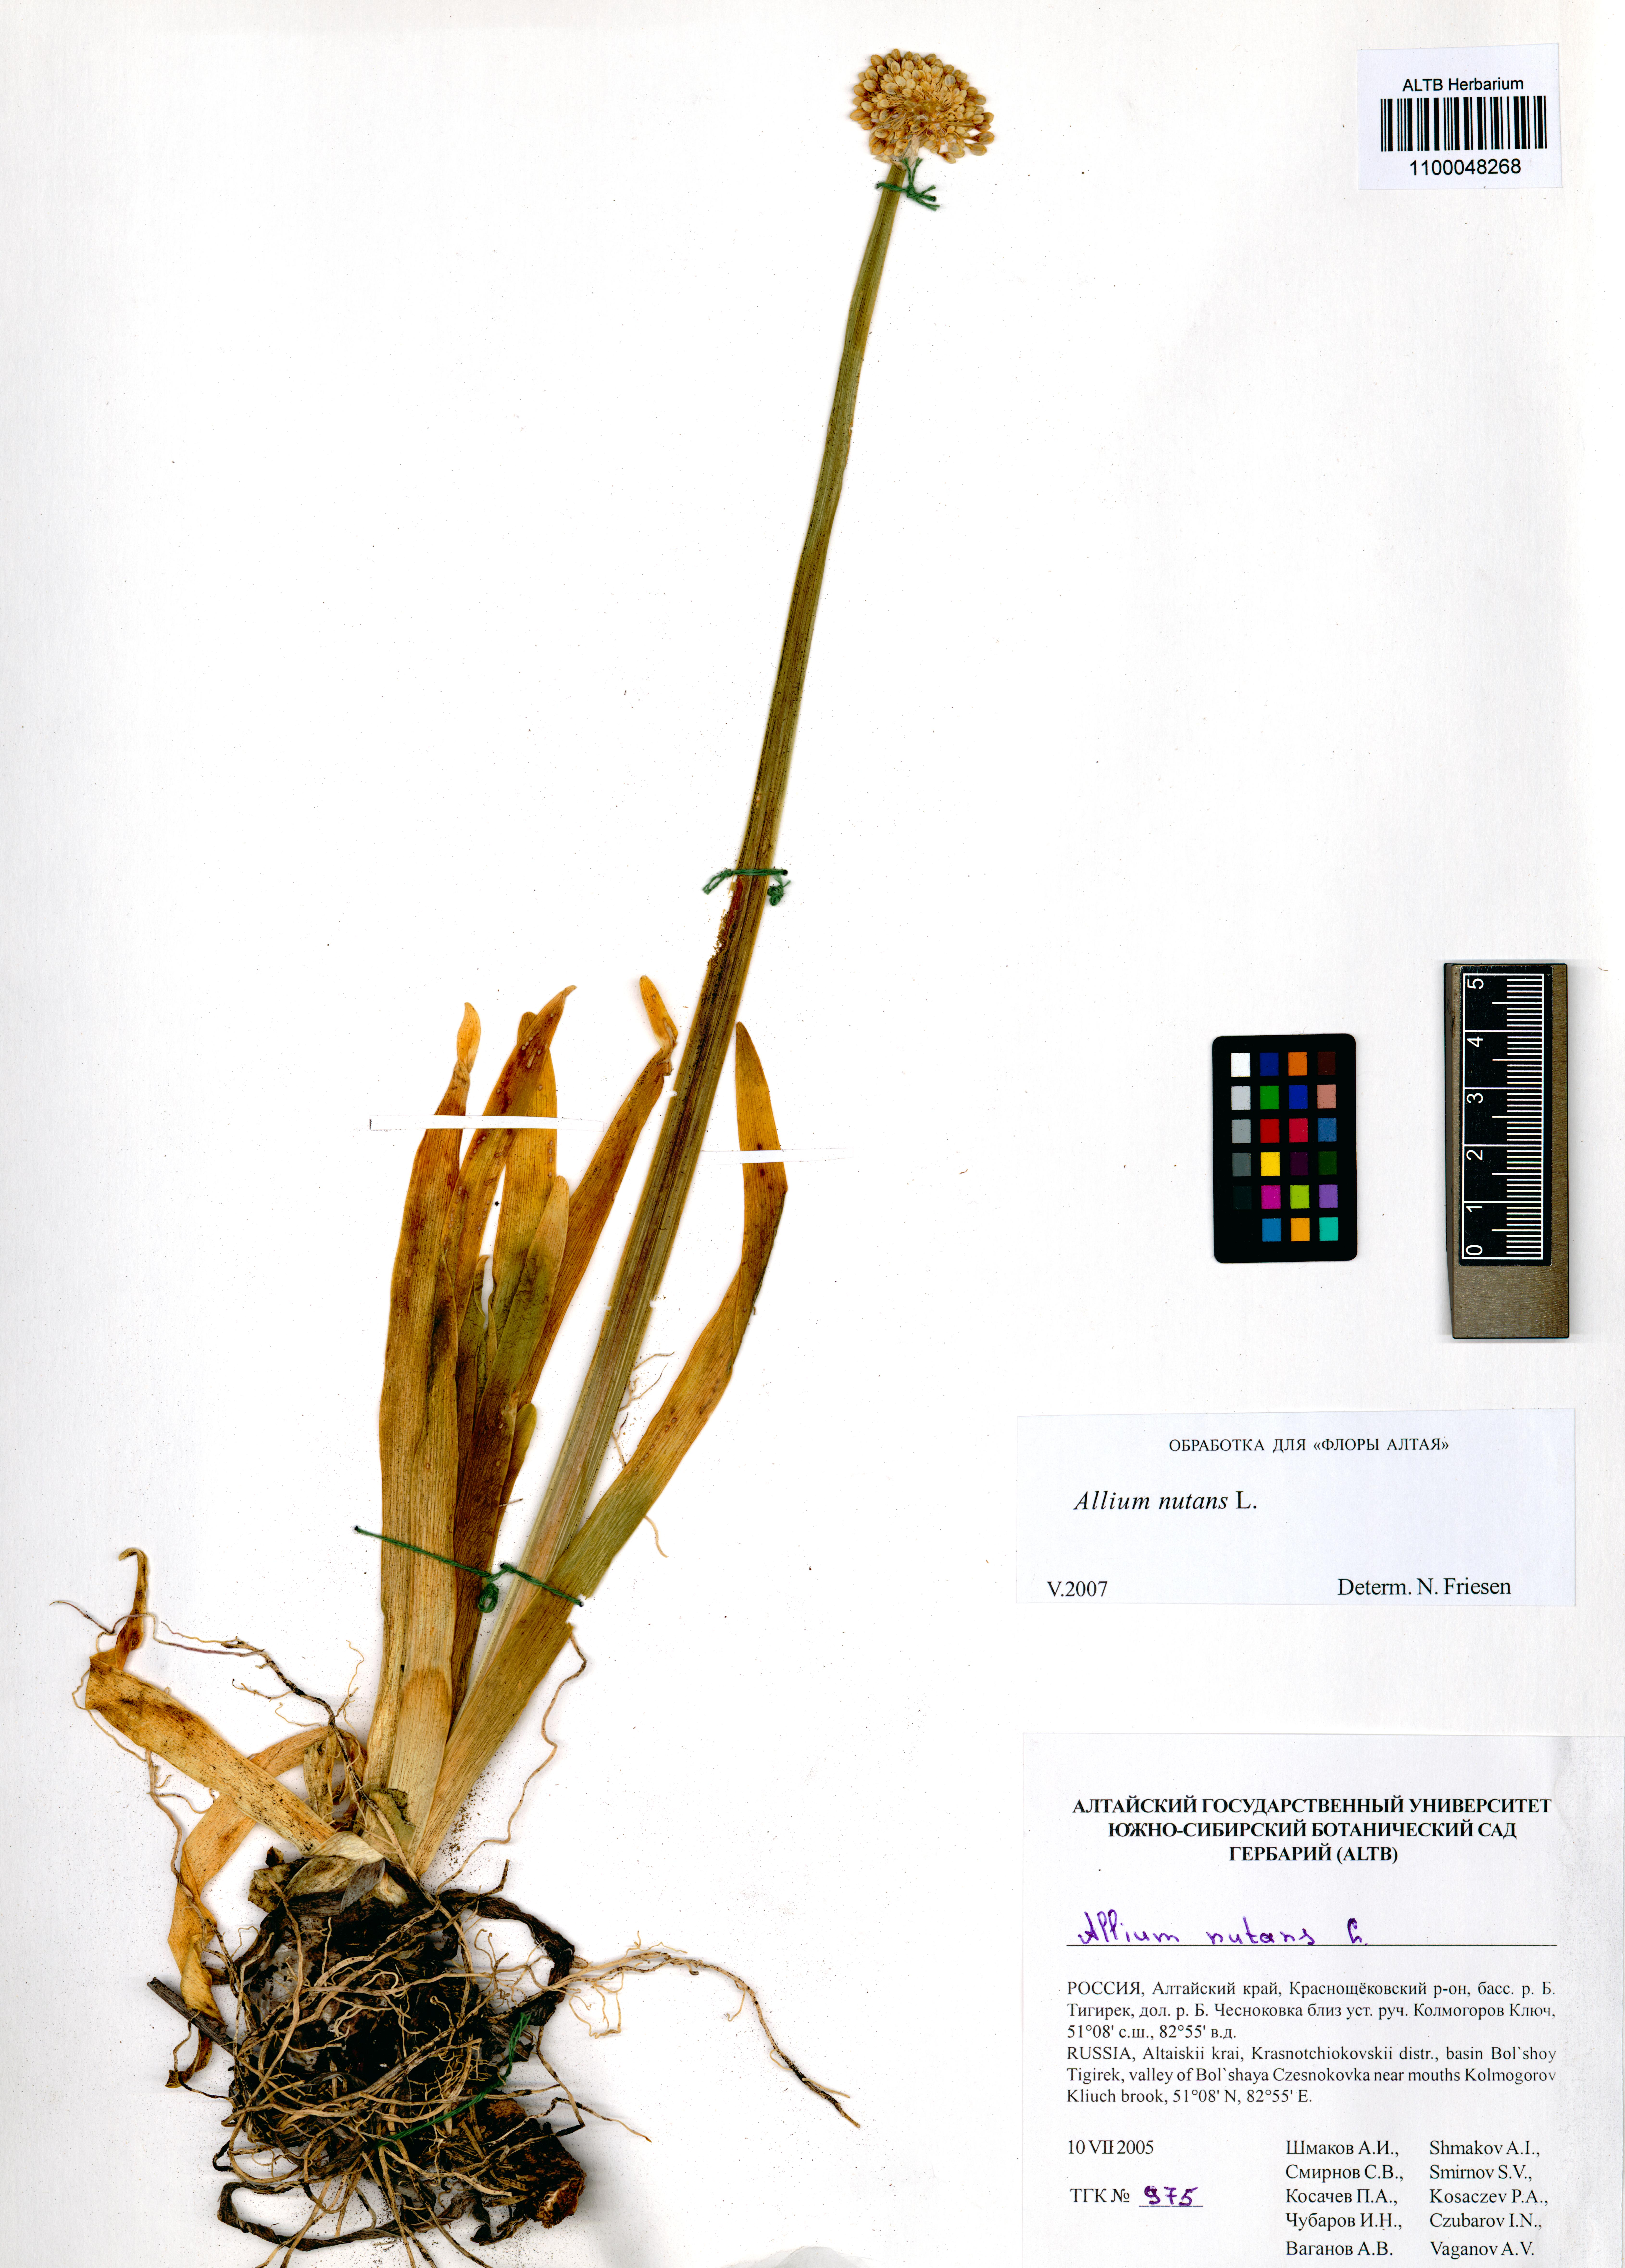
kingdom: Plantae
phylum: Tracheophyta
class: Liliopsida
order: Asparagales
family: Amaryllidaceae
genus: Allium
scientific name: Allium nutans
